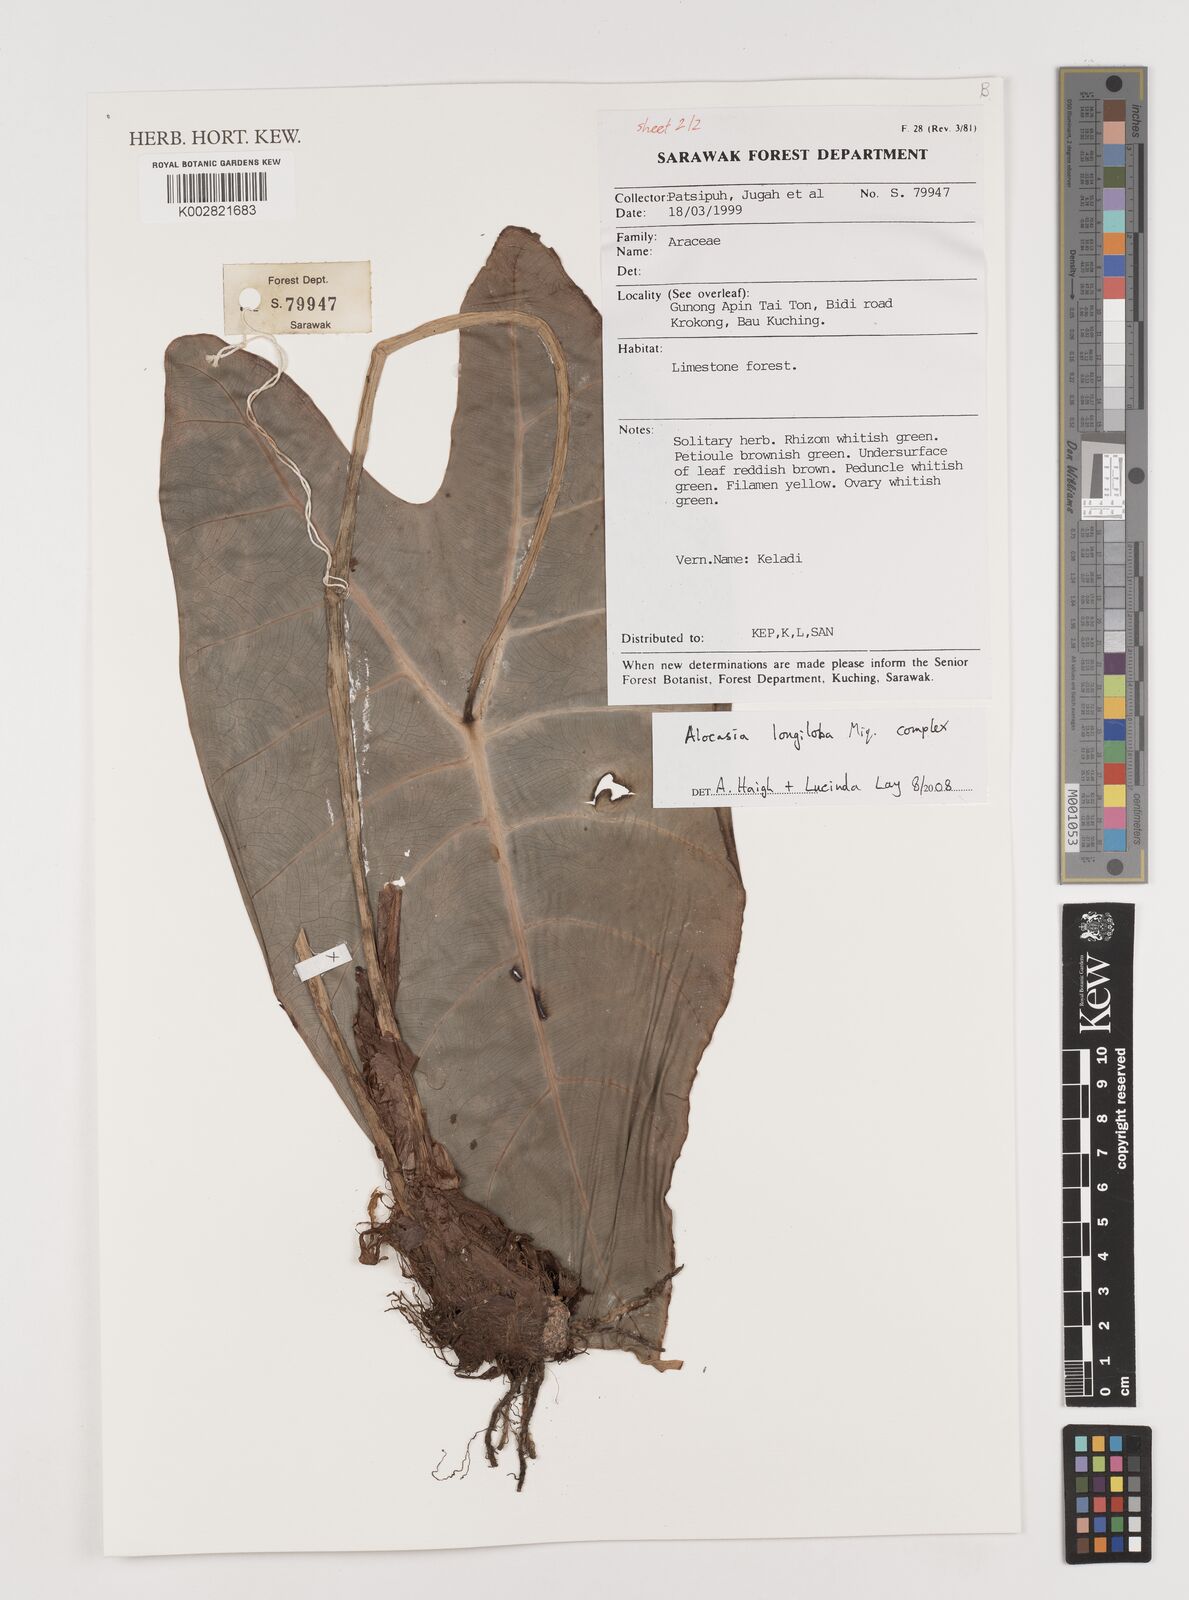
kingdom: Plantae
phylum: Tracheophyta
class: Liliopsida
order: Alismatales
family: Araceae
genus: Alocasia
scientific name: Alocasia longiloba
